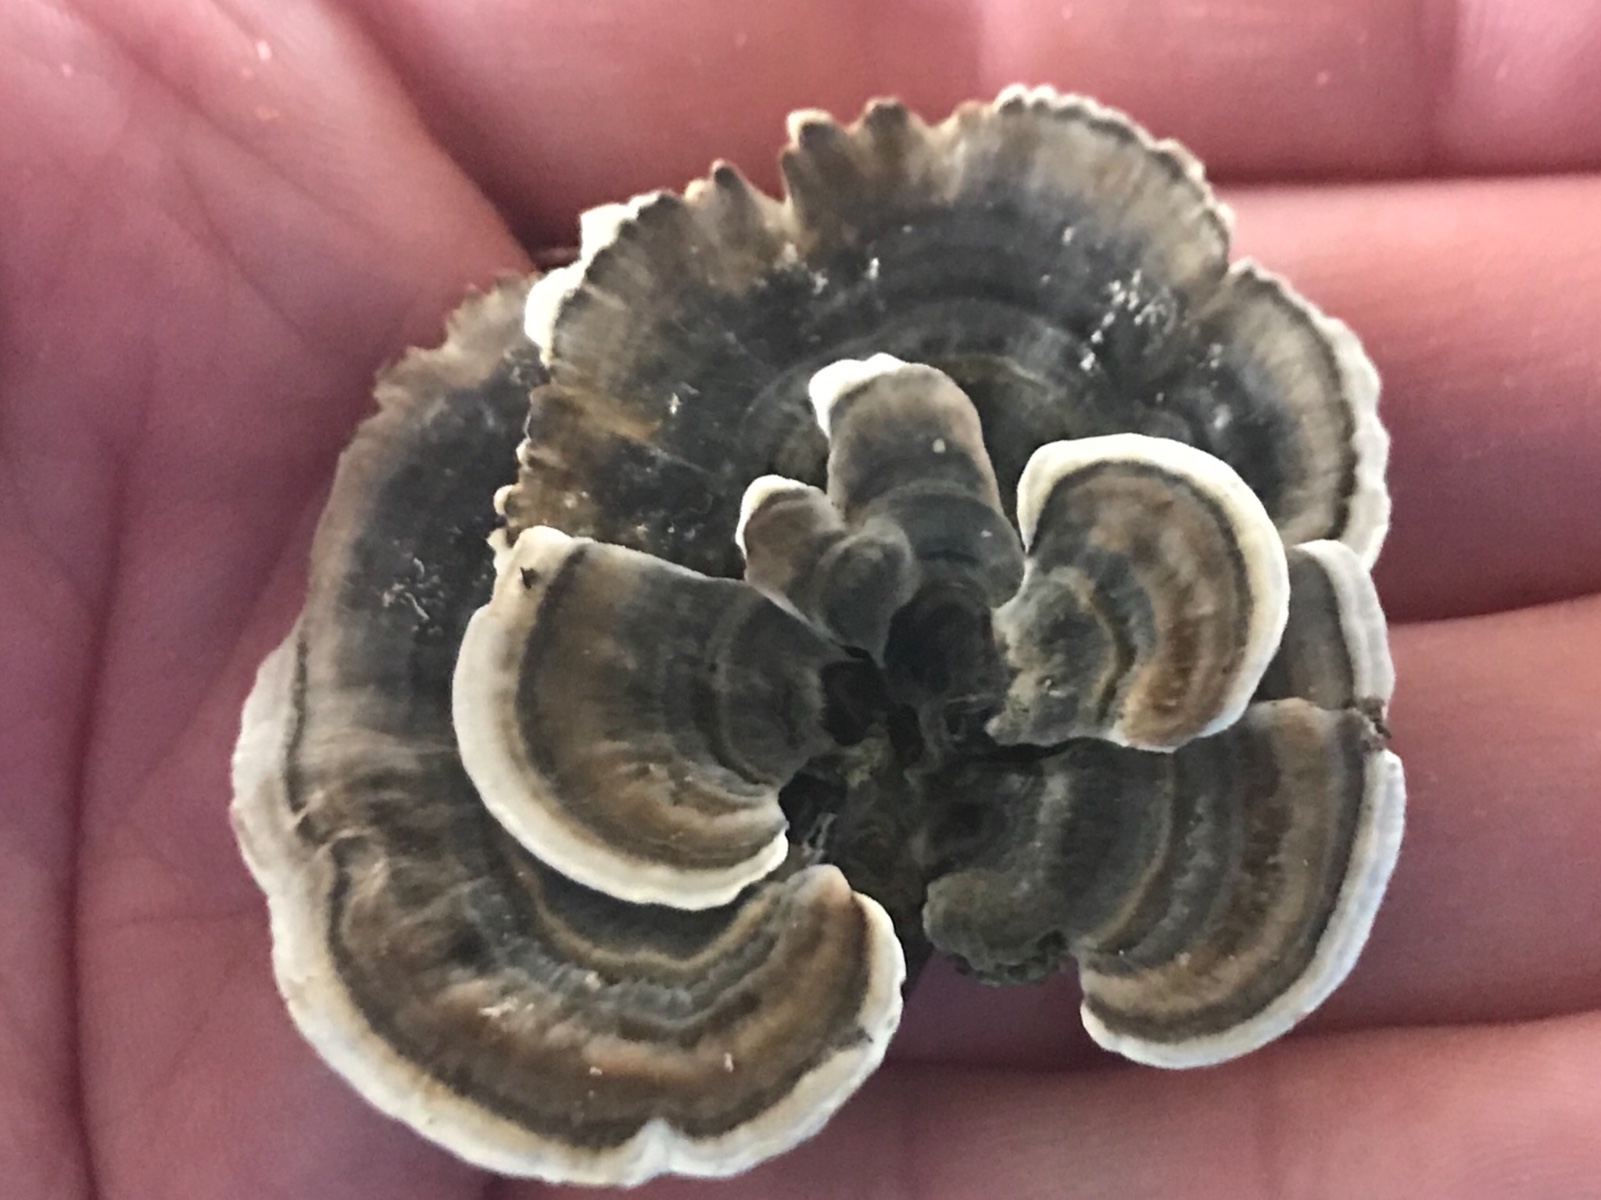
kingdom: Fungi
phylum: Basidiomycota
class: Agaricomycetes
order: Polyporales
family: Polyporaceae
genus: Trametes
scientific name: Trametes versicolor
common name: broget læderporesvamp
